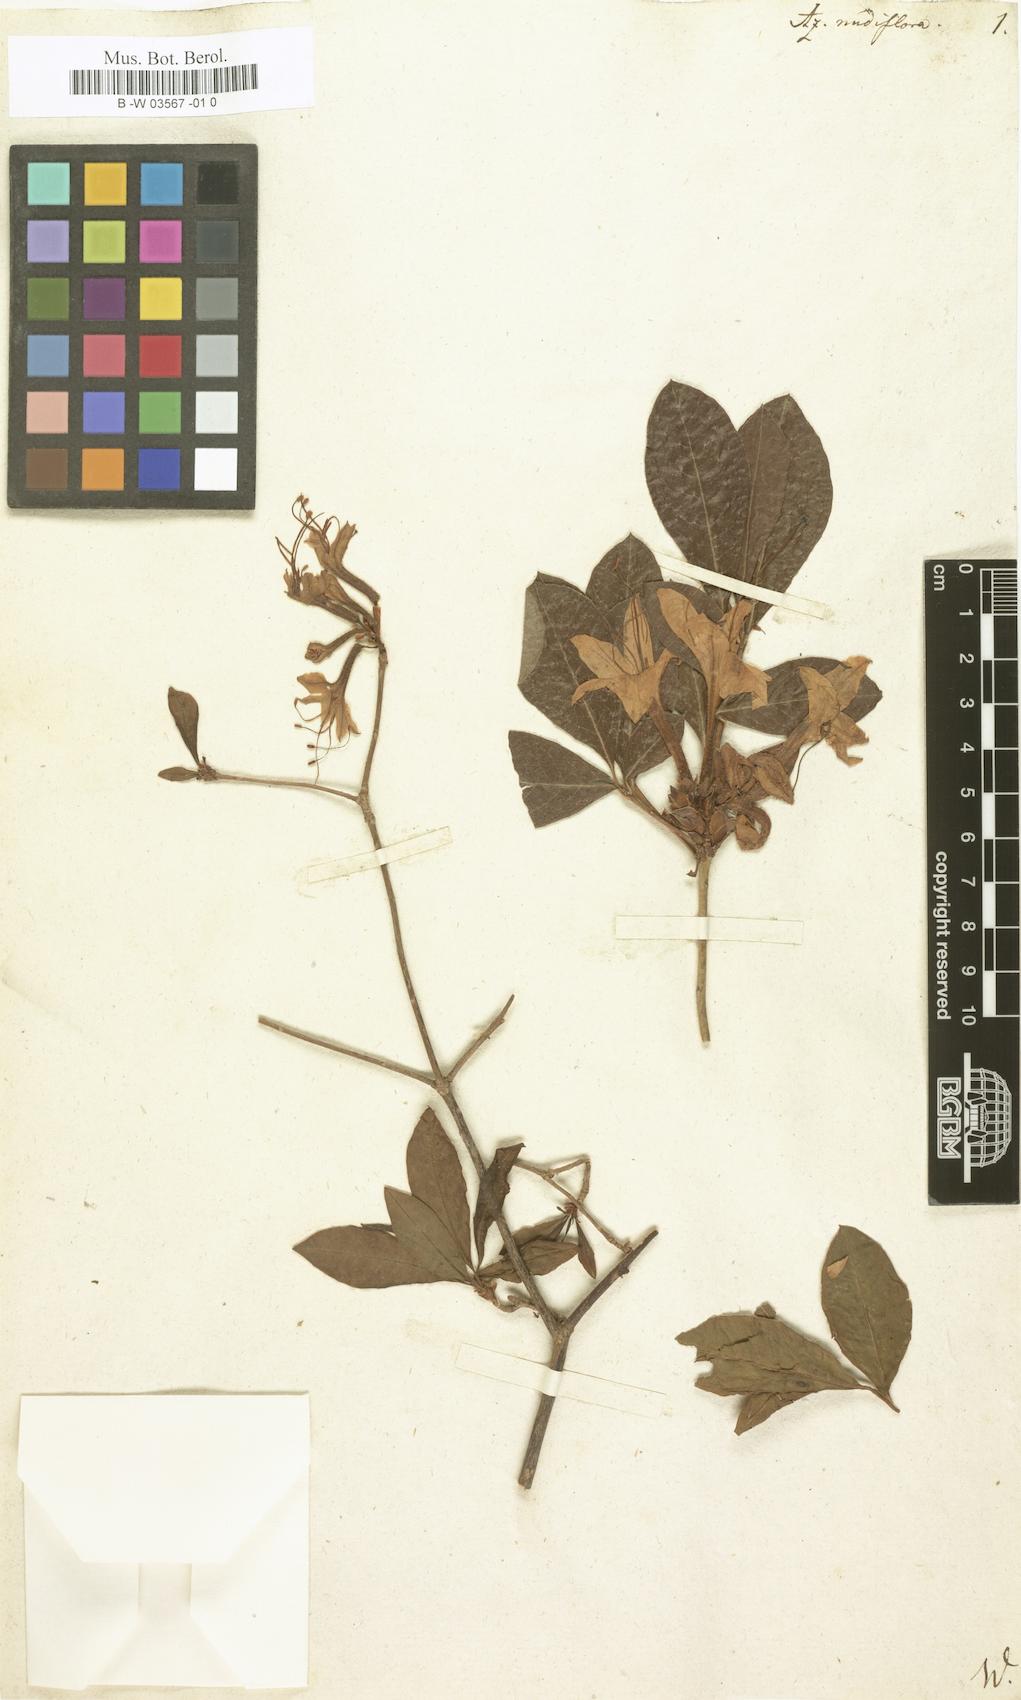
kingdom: Plantae
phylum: Tracheophyta
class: Magnoliopsida
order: Ericales
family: Ericaceae
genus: Rhododendron
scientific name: Rhododendron periclymenoides
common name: Election-pink
